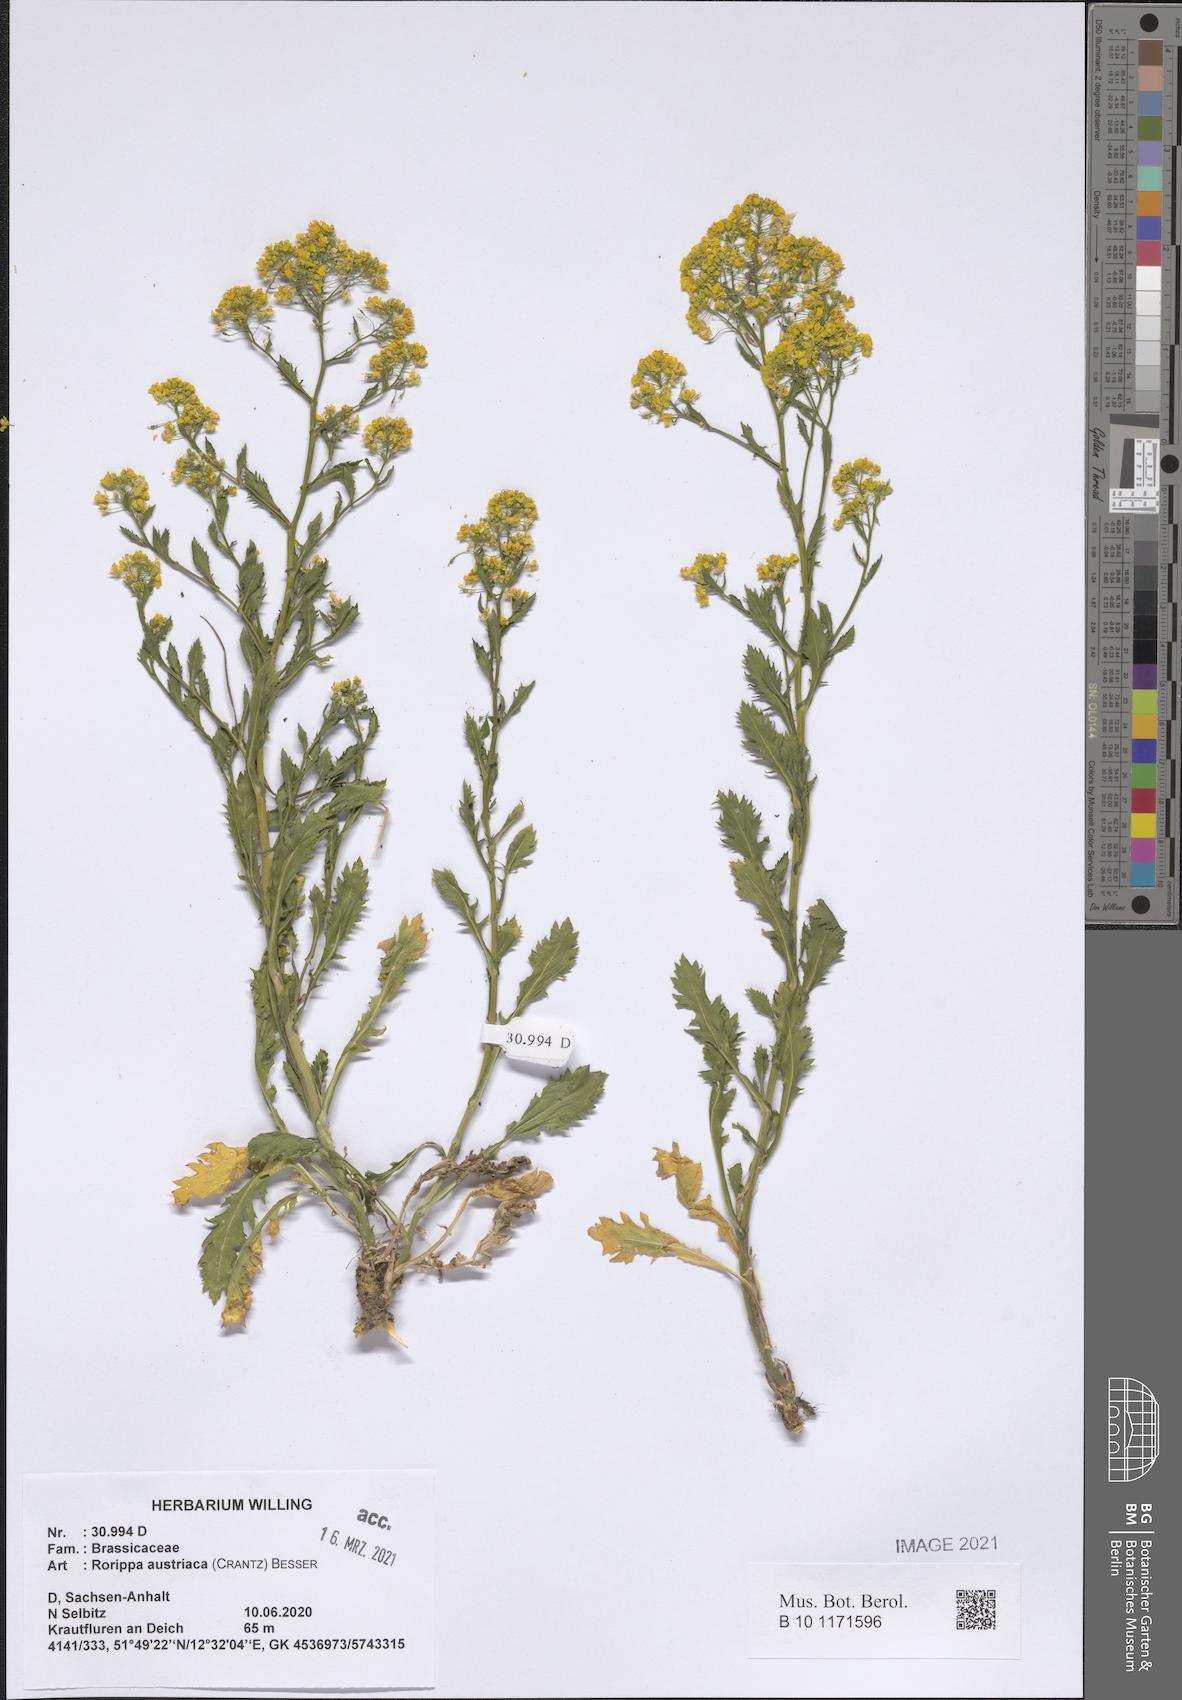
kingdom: Plantae
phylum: Tracheophyta
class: Magnoliopsida
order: Brassicales
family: Brassicaceae
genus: Rorippa
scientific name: Rorippa austriaca
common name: Austrian yellow-cress
